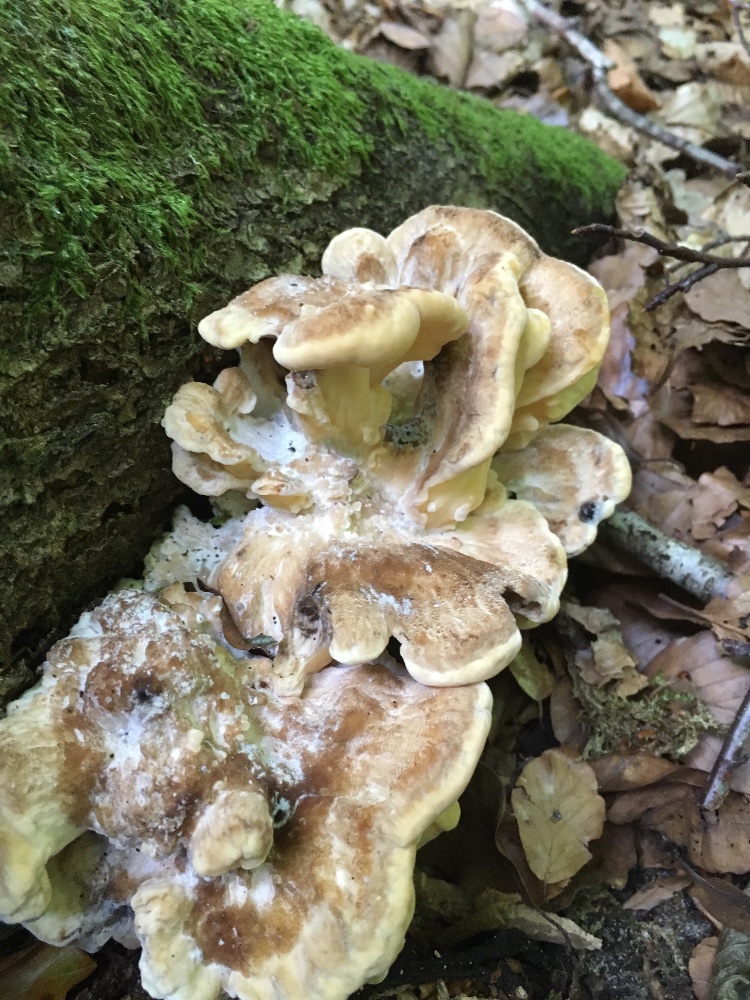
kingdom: Fungi
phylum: Basidiomycota
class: Agaricomycetes
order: Polyporales
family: Meripilaceae
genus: Meripilus
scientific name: Meripilus giganteus
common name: kæmpeporesvamp
